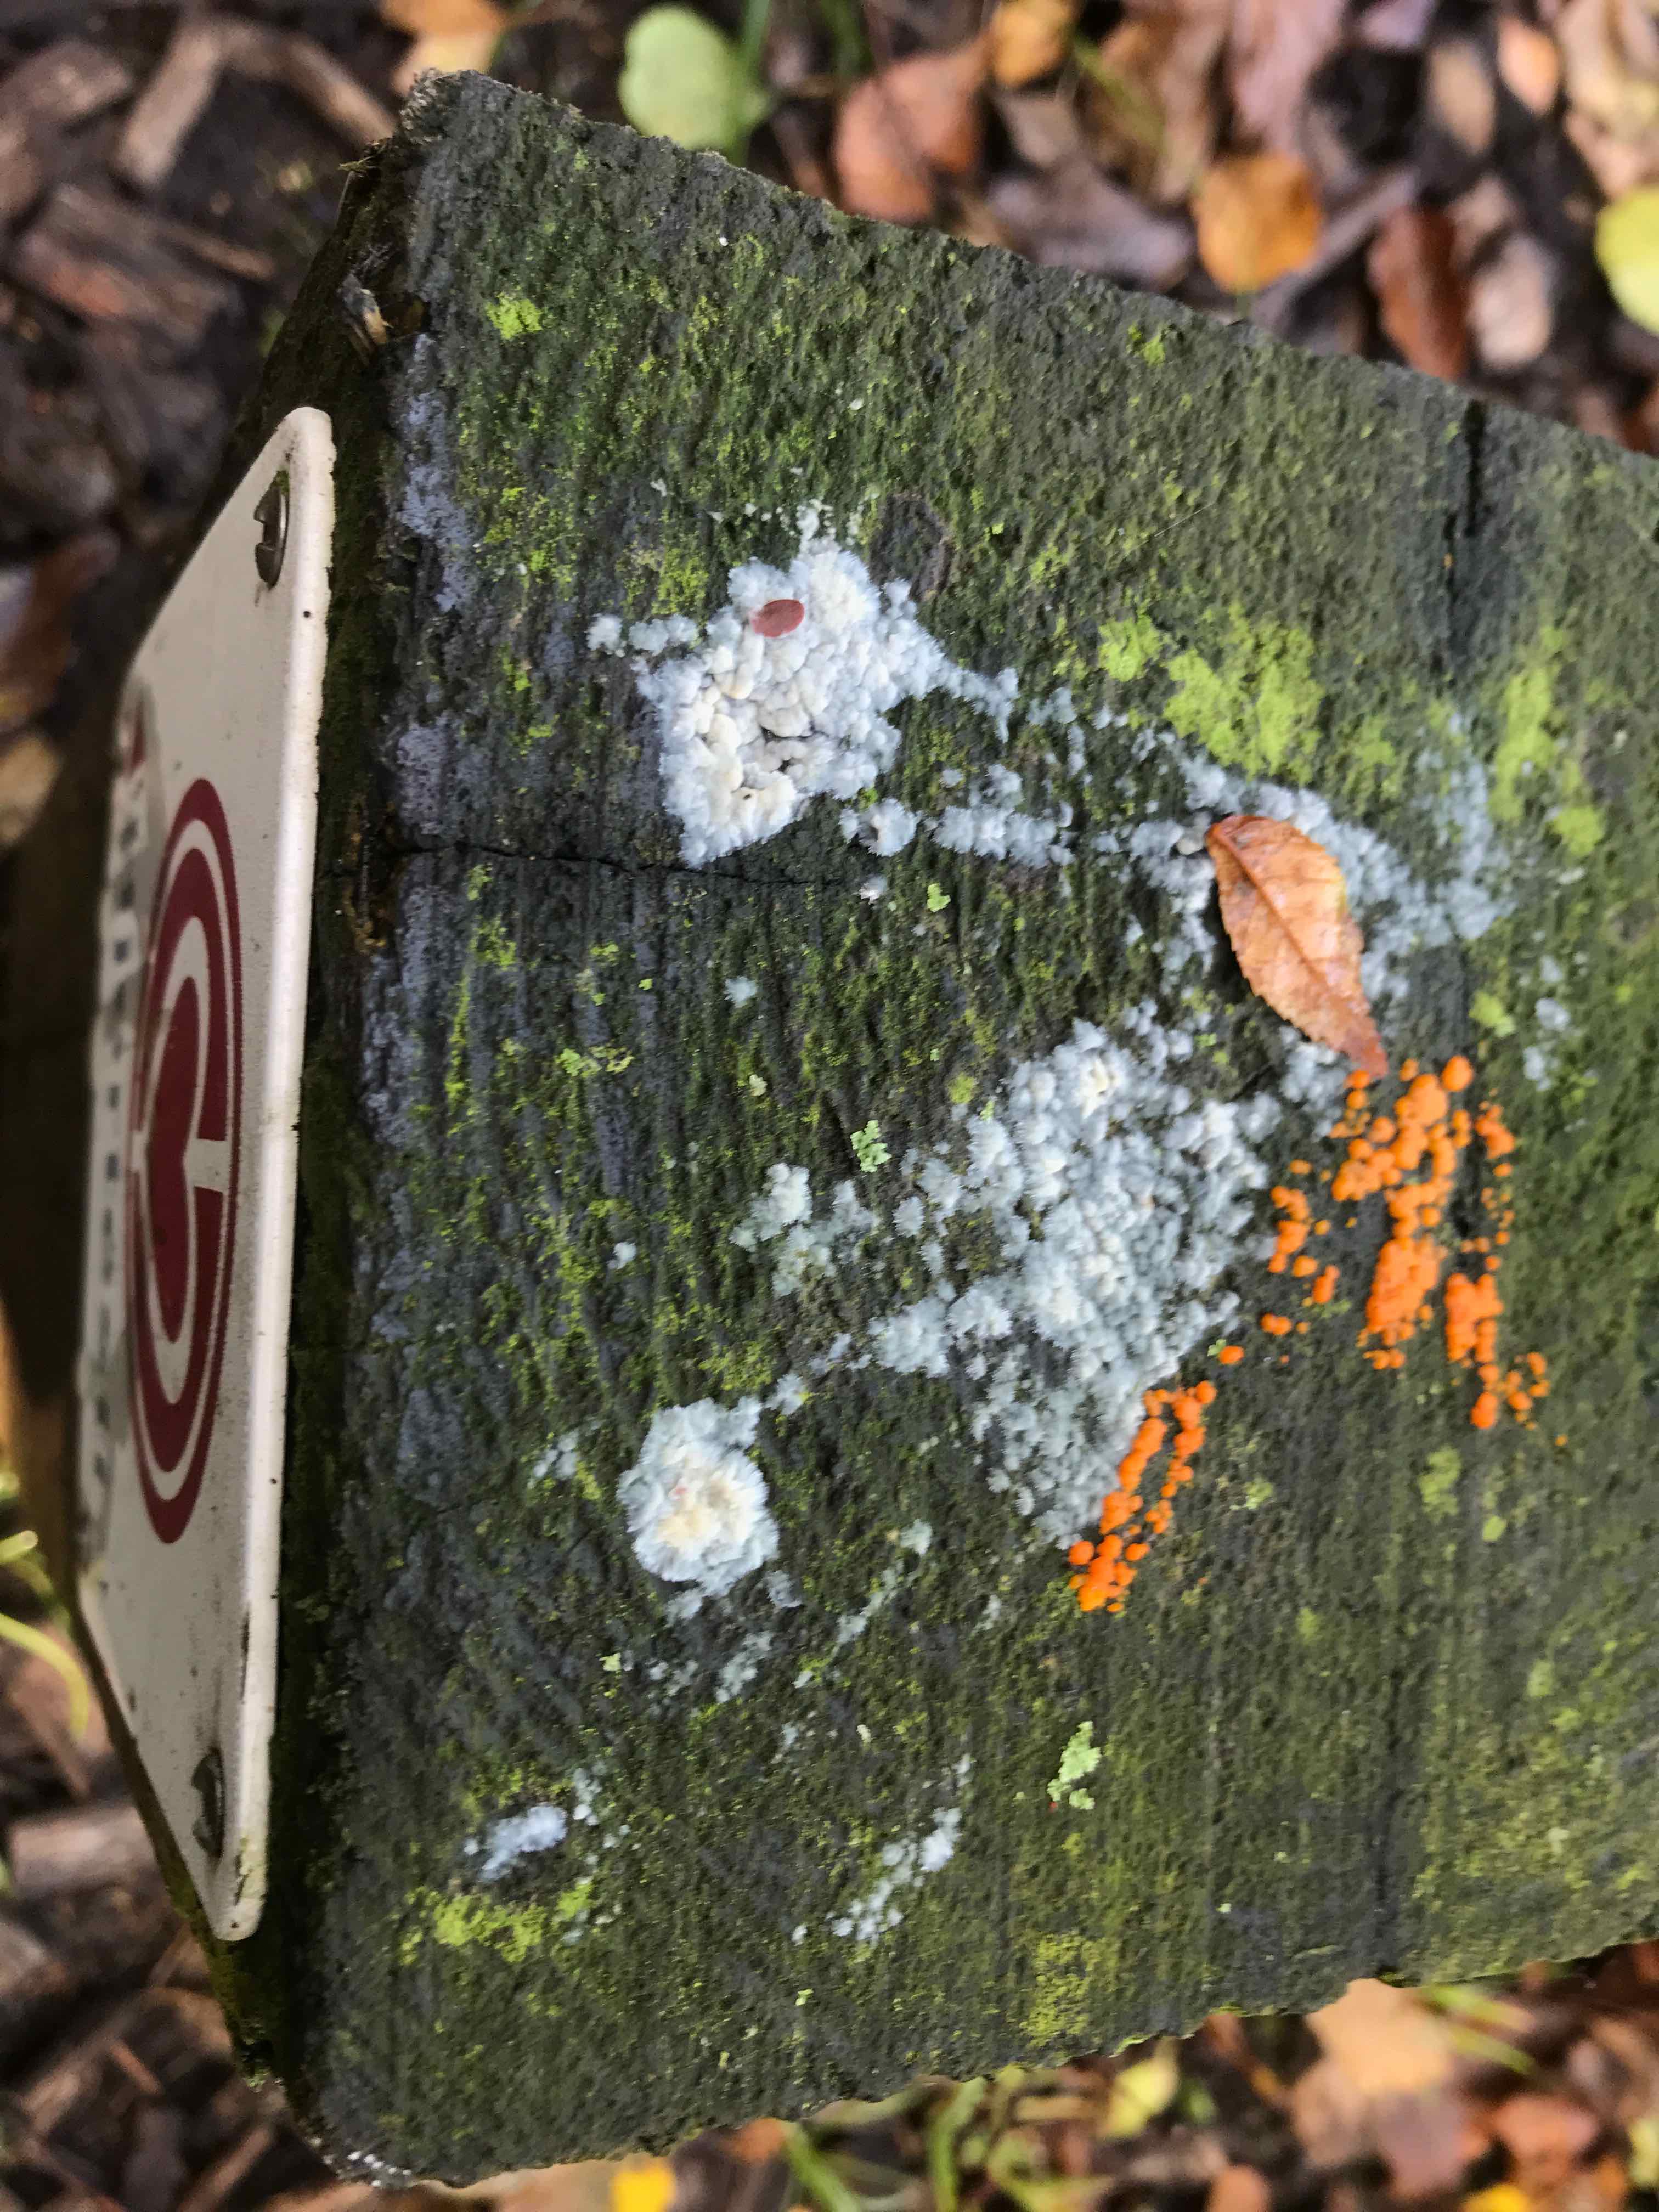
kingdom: Fungi
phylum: Basidiomycota
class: Dacrymycetes
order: Dacrymycetales
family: Dacrymycetaceae
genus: Dacrymyces
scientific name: Dacrymyces stillatus
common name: almindelig tåresvamp
